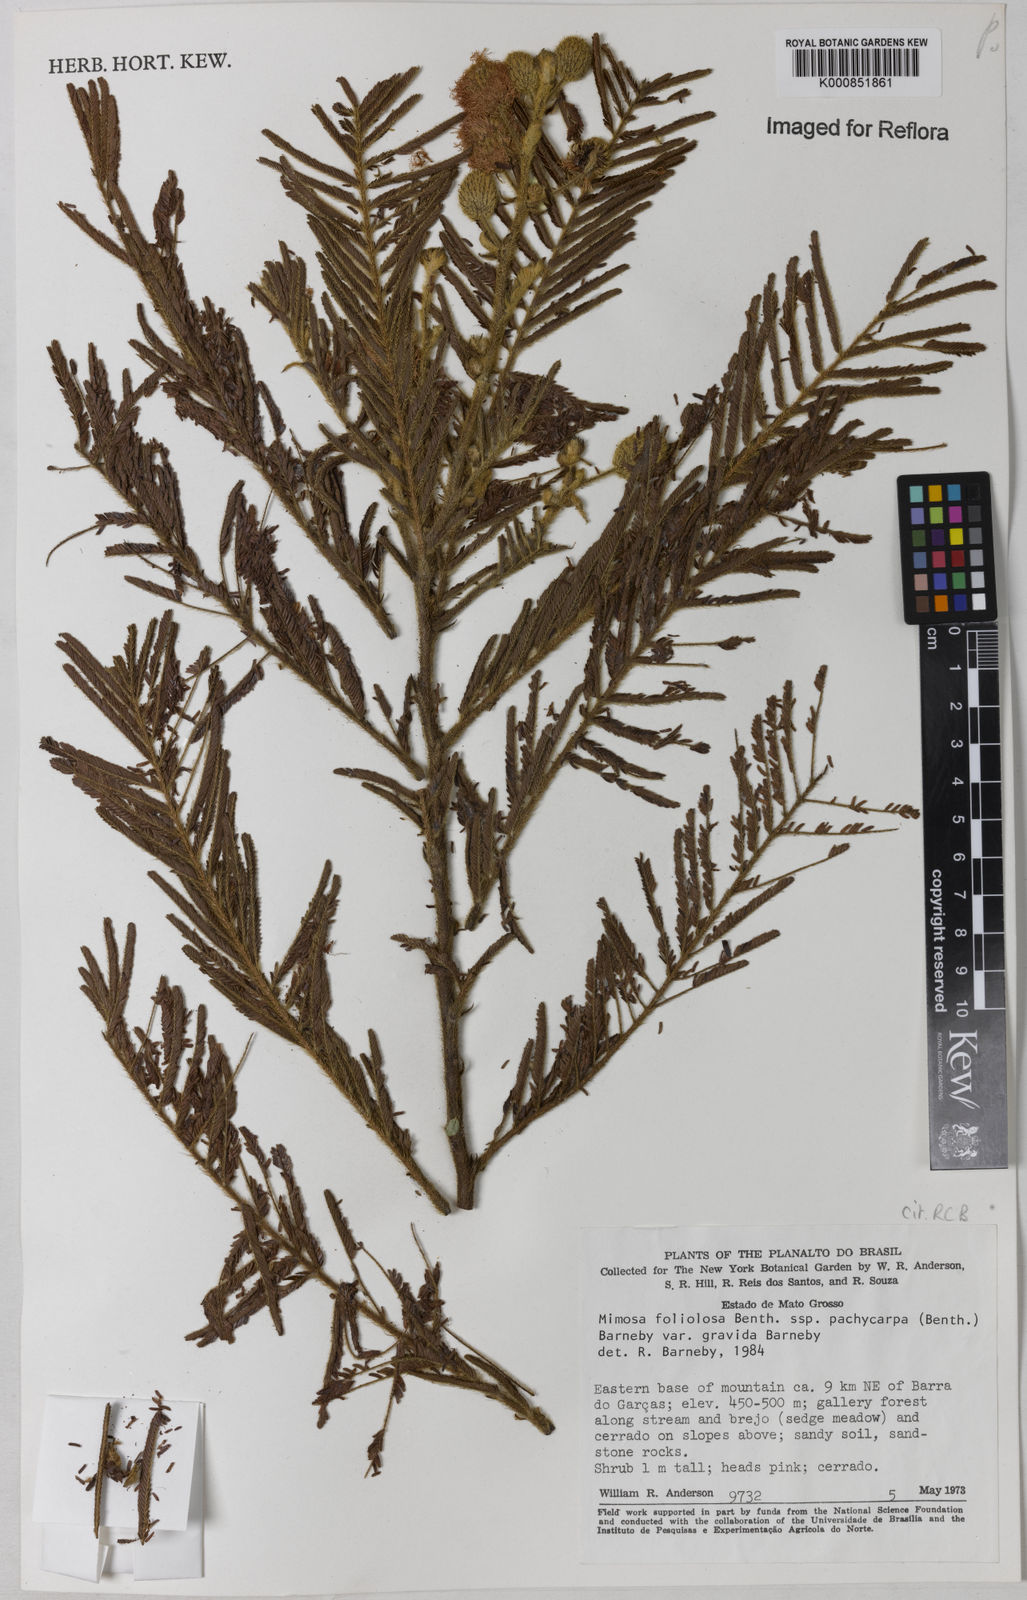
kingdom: Plantae
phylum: Tracheophyta
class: Magnoliopsida
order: Fabales
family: Fabaceae
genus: Mimosa
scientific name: Mimosa foliolosa
